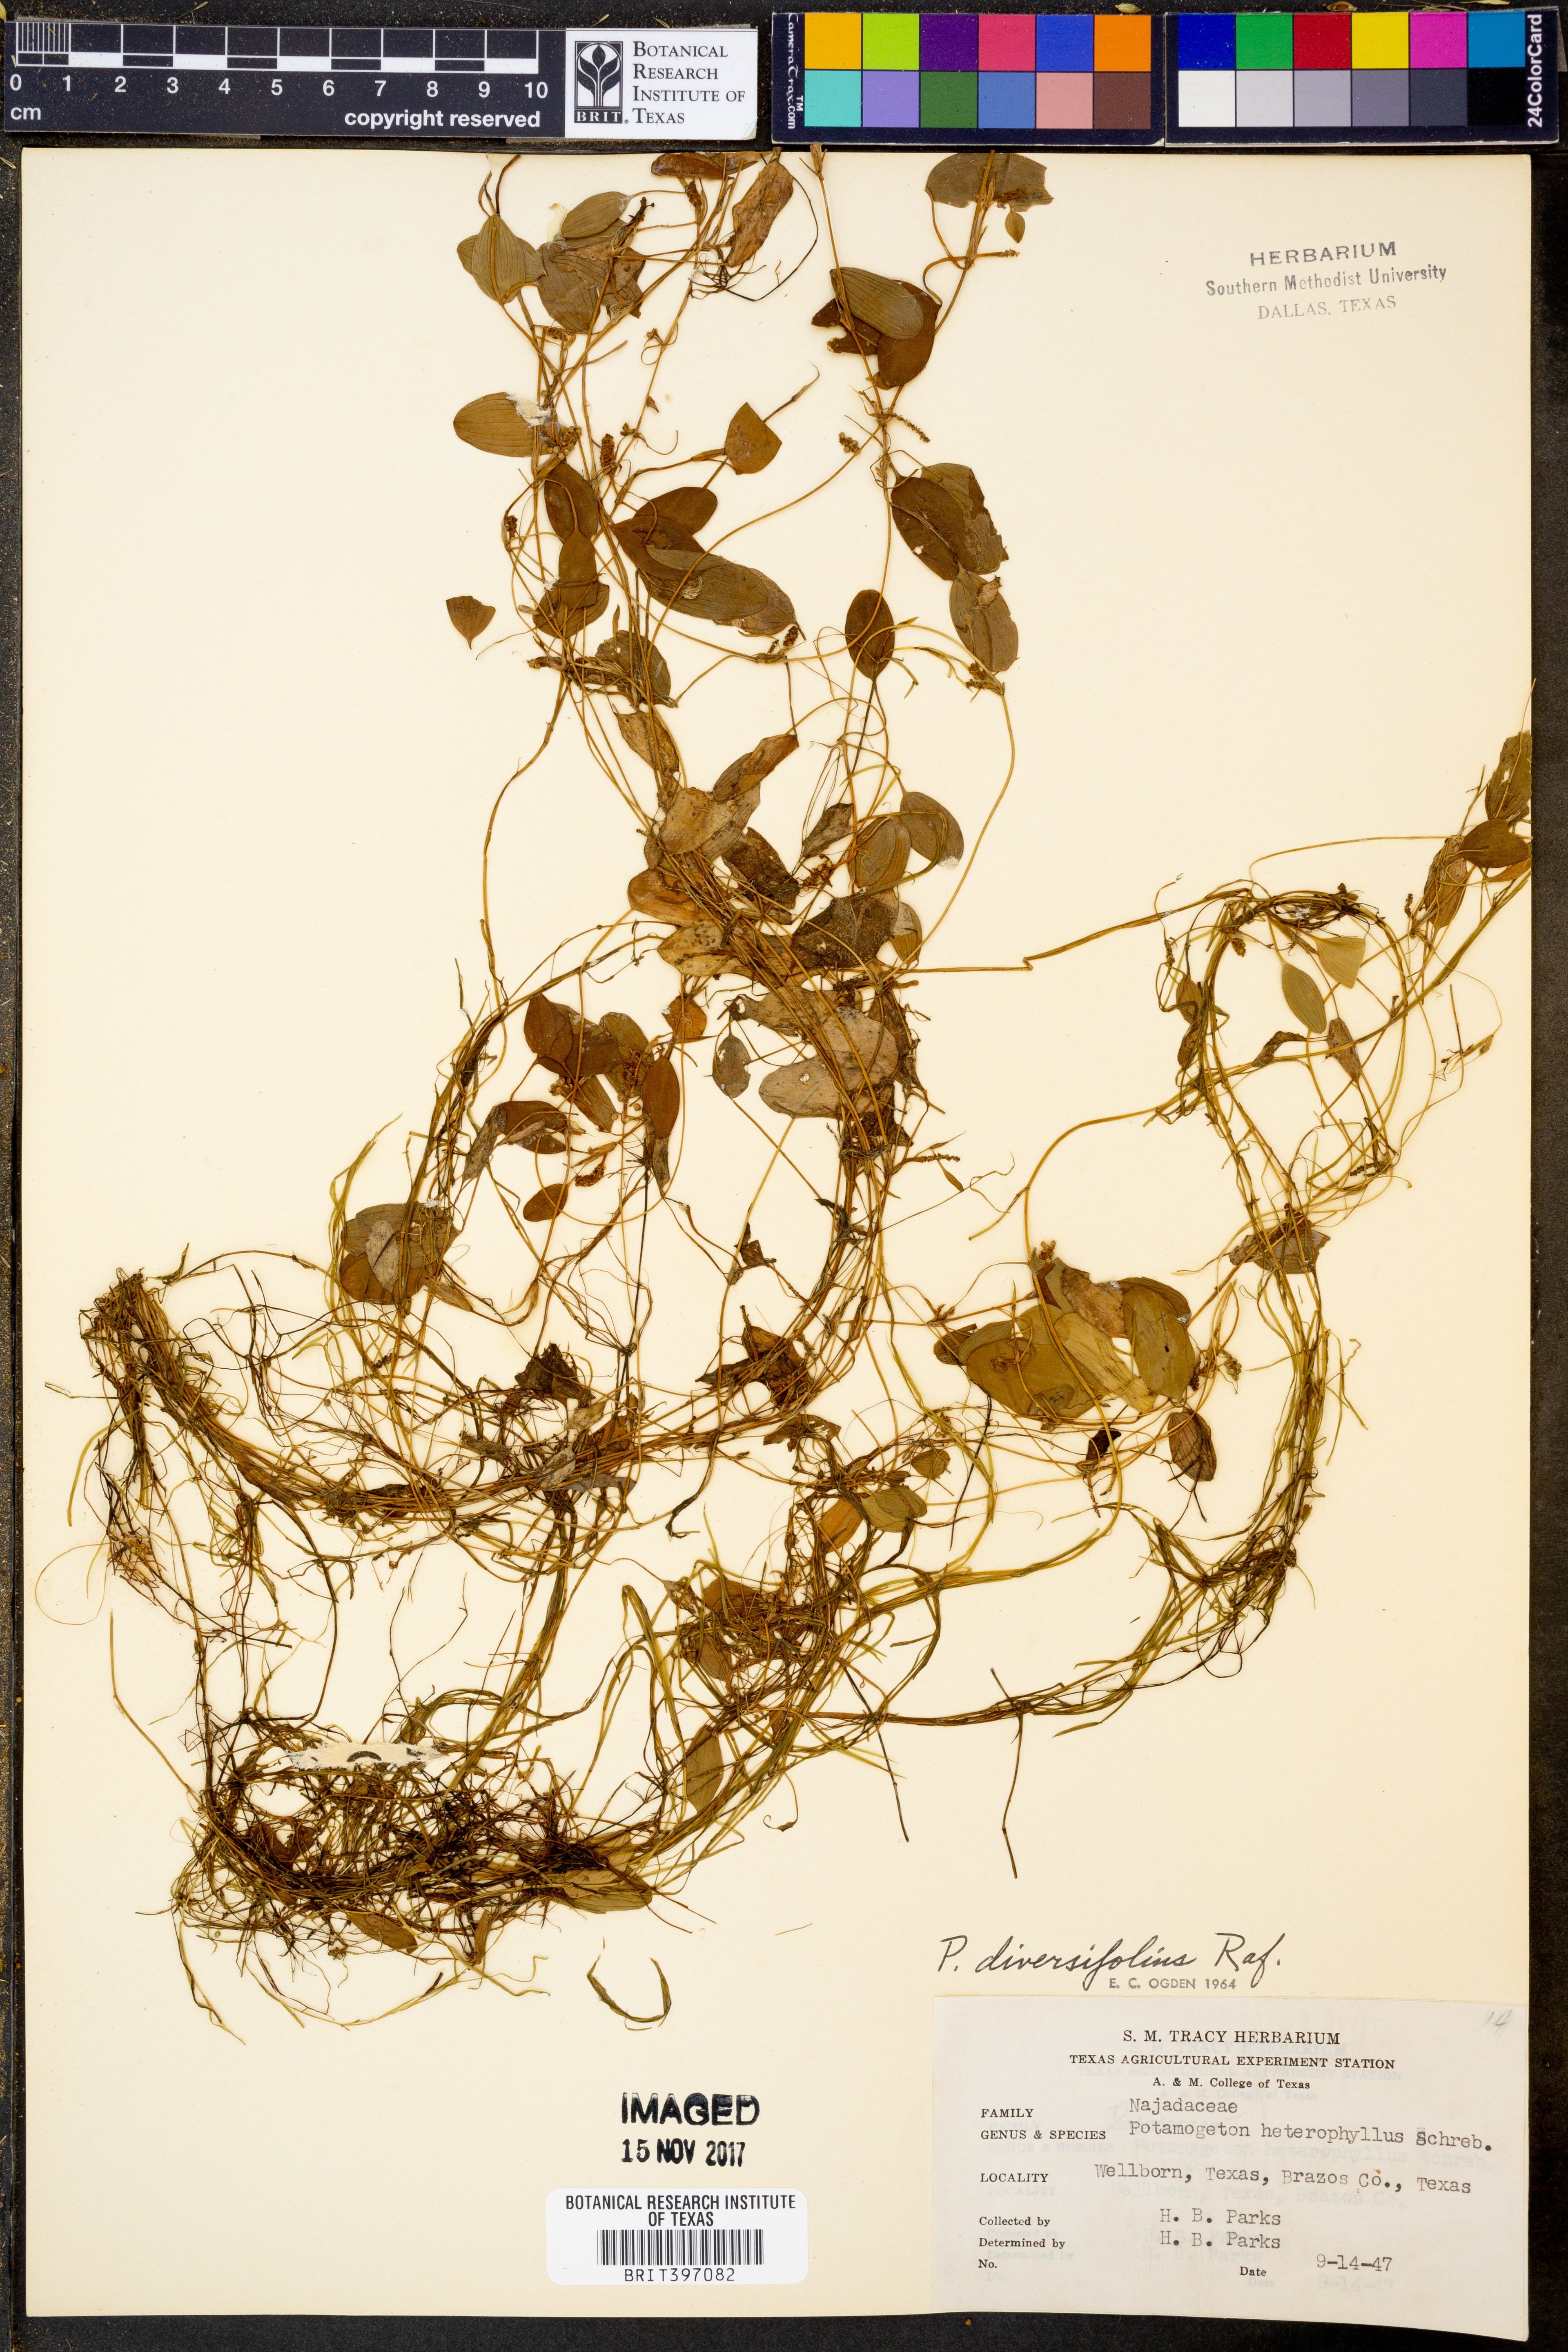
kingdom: Plantae
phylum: Tracheophyta
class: Liliopsida
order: Alismatales
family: Potamogetonaceae
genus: Potamogeton
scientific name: Potamogeton diversifolius
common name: Water-thread pondweed
